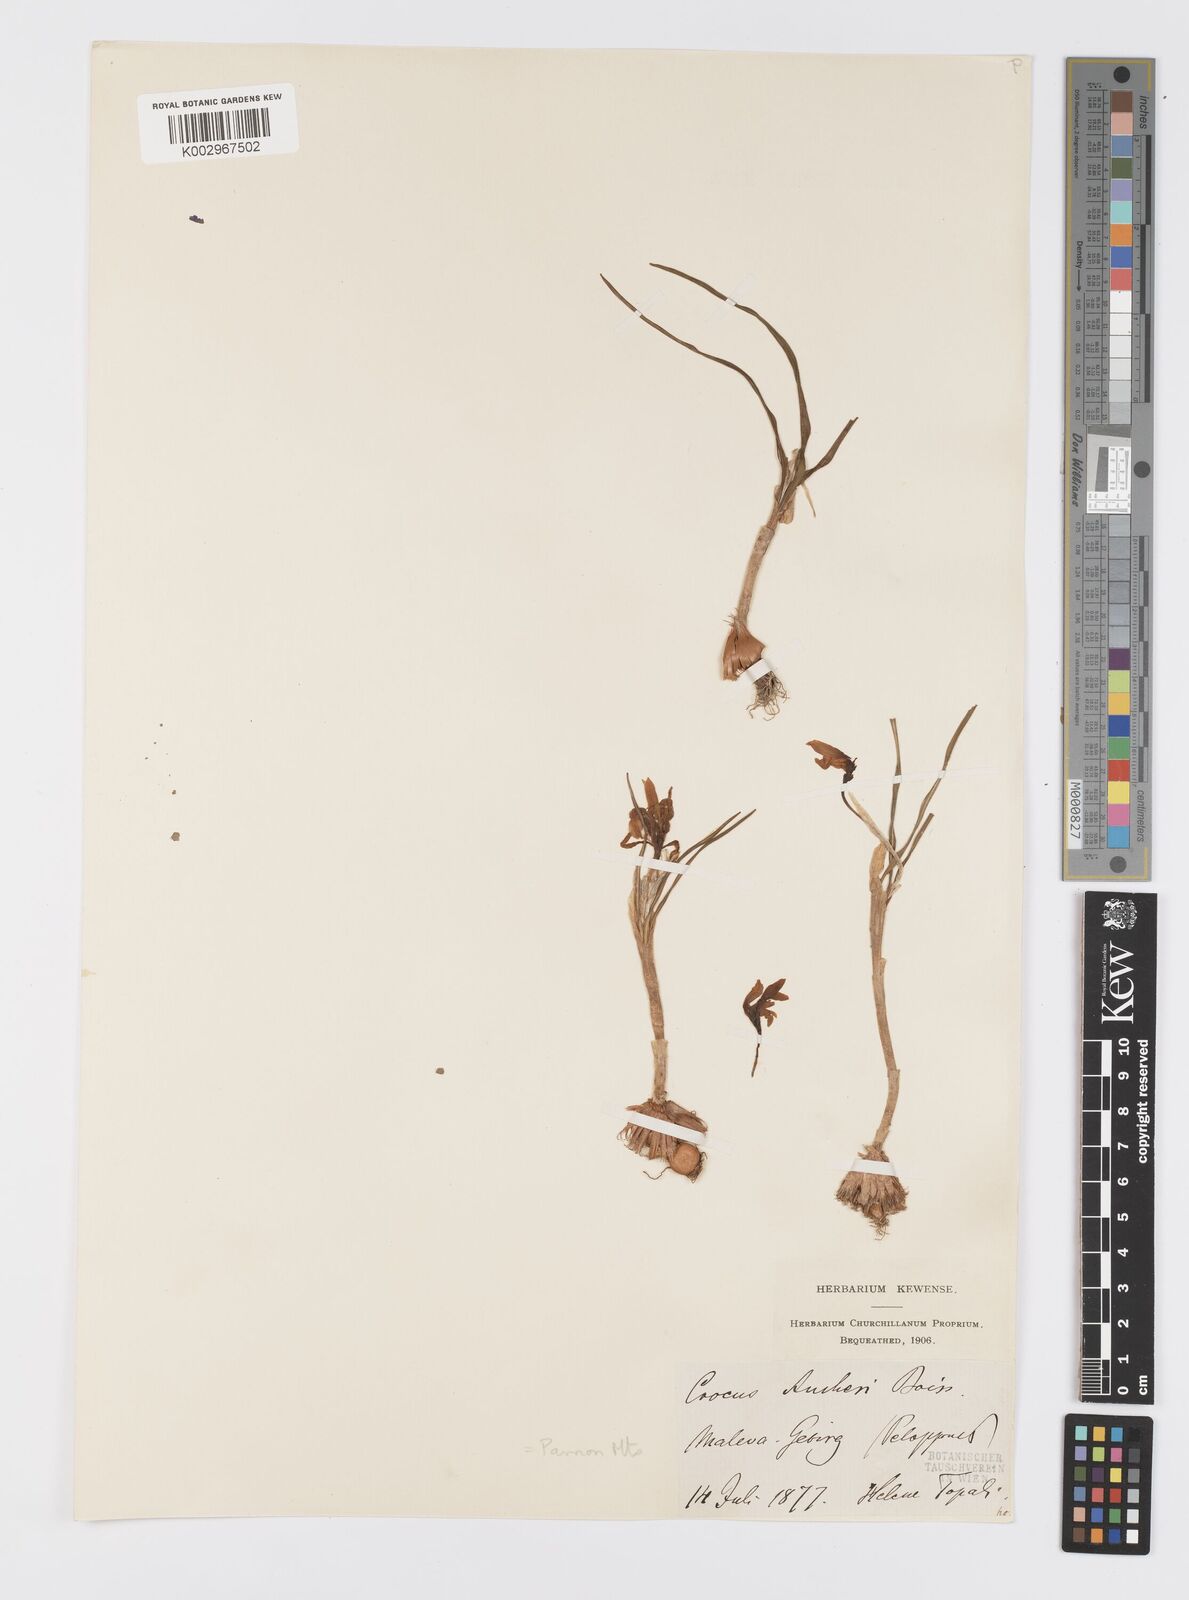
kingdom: Plantae
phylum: Tracheophyta
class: Liliopsida
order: Asparagales
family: Iridaceae
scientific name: Iridaceae
